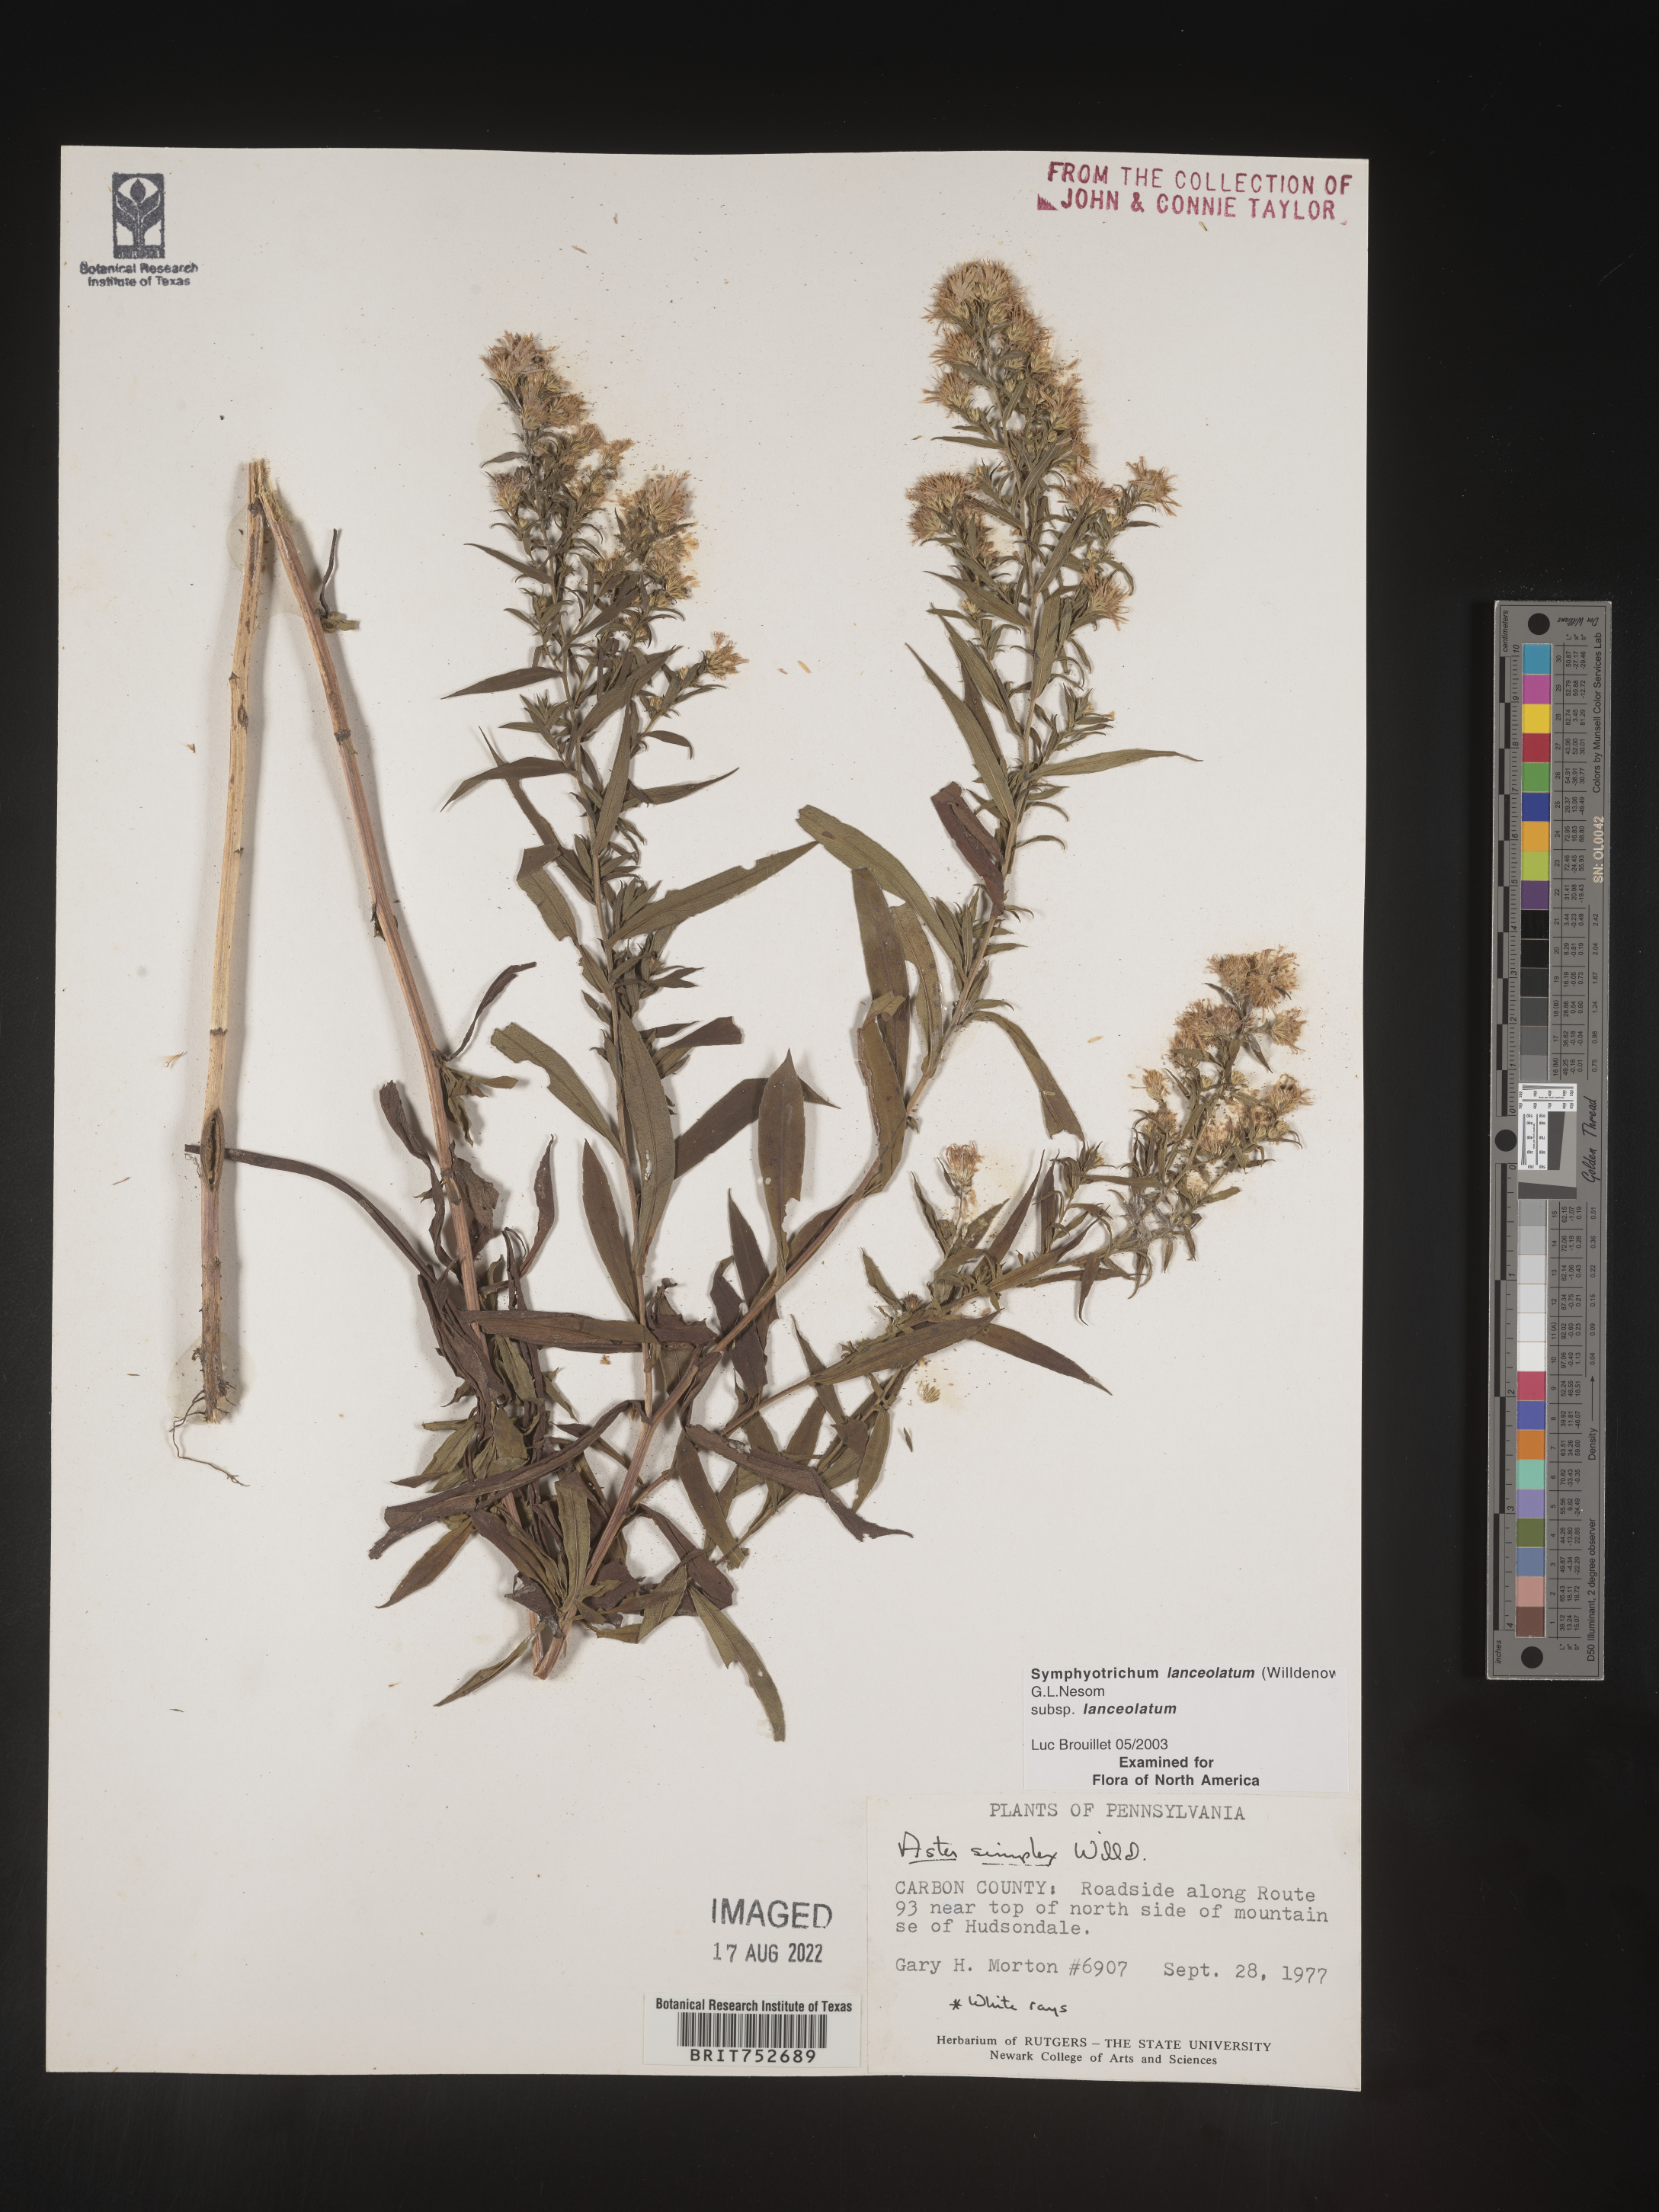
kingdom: Plantae
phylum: Tracheophyta
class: Magnoliopsida
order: Asterales
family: Asteraceae
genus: Symphyotrichum
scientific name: Symphyotrichum lanceolatum
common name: Panicled aster
